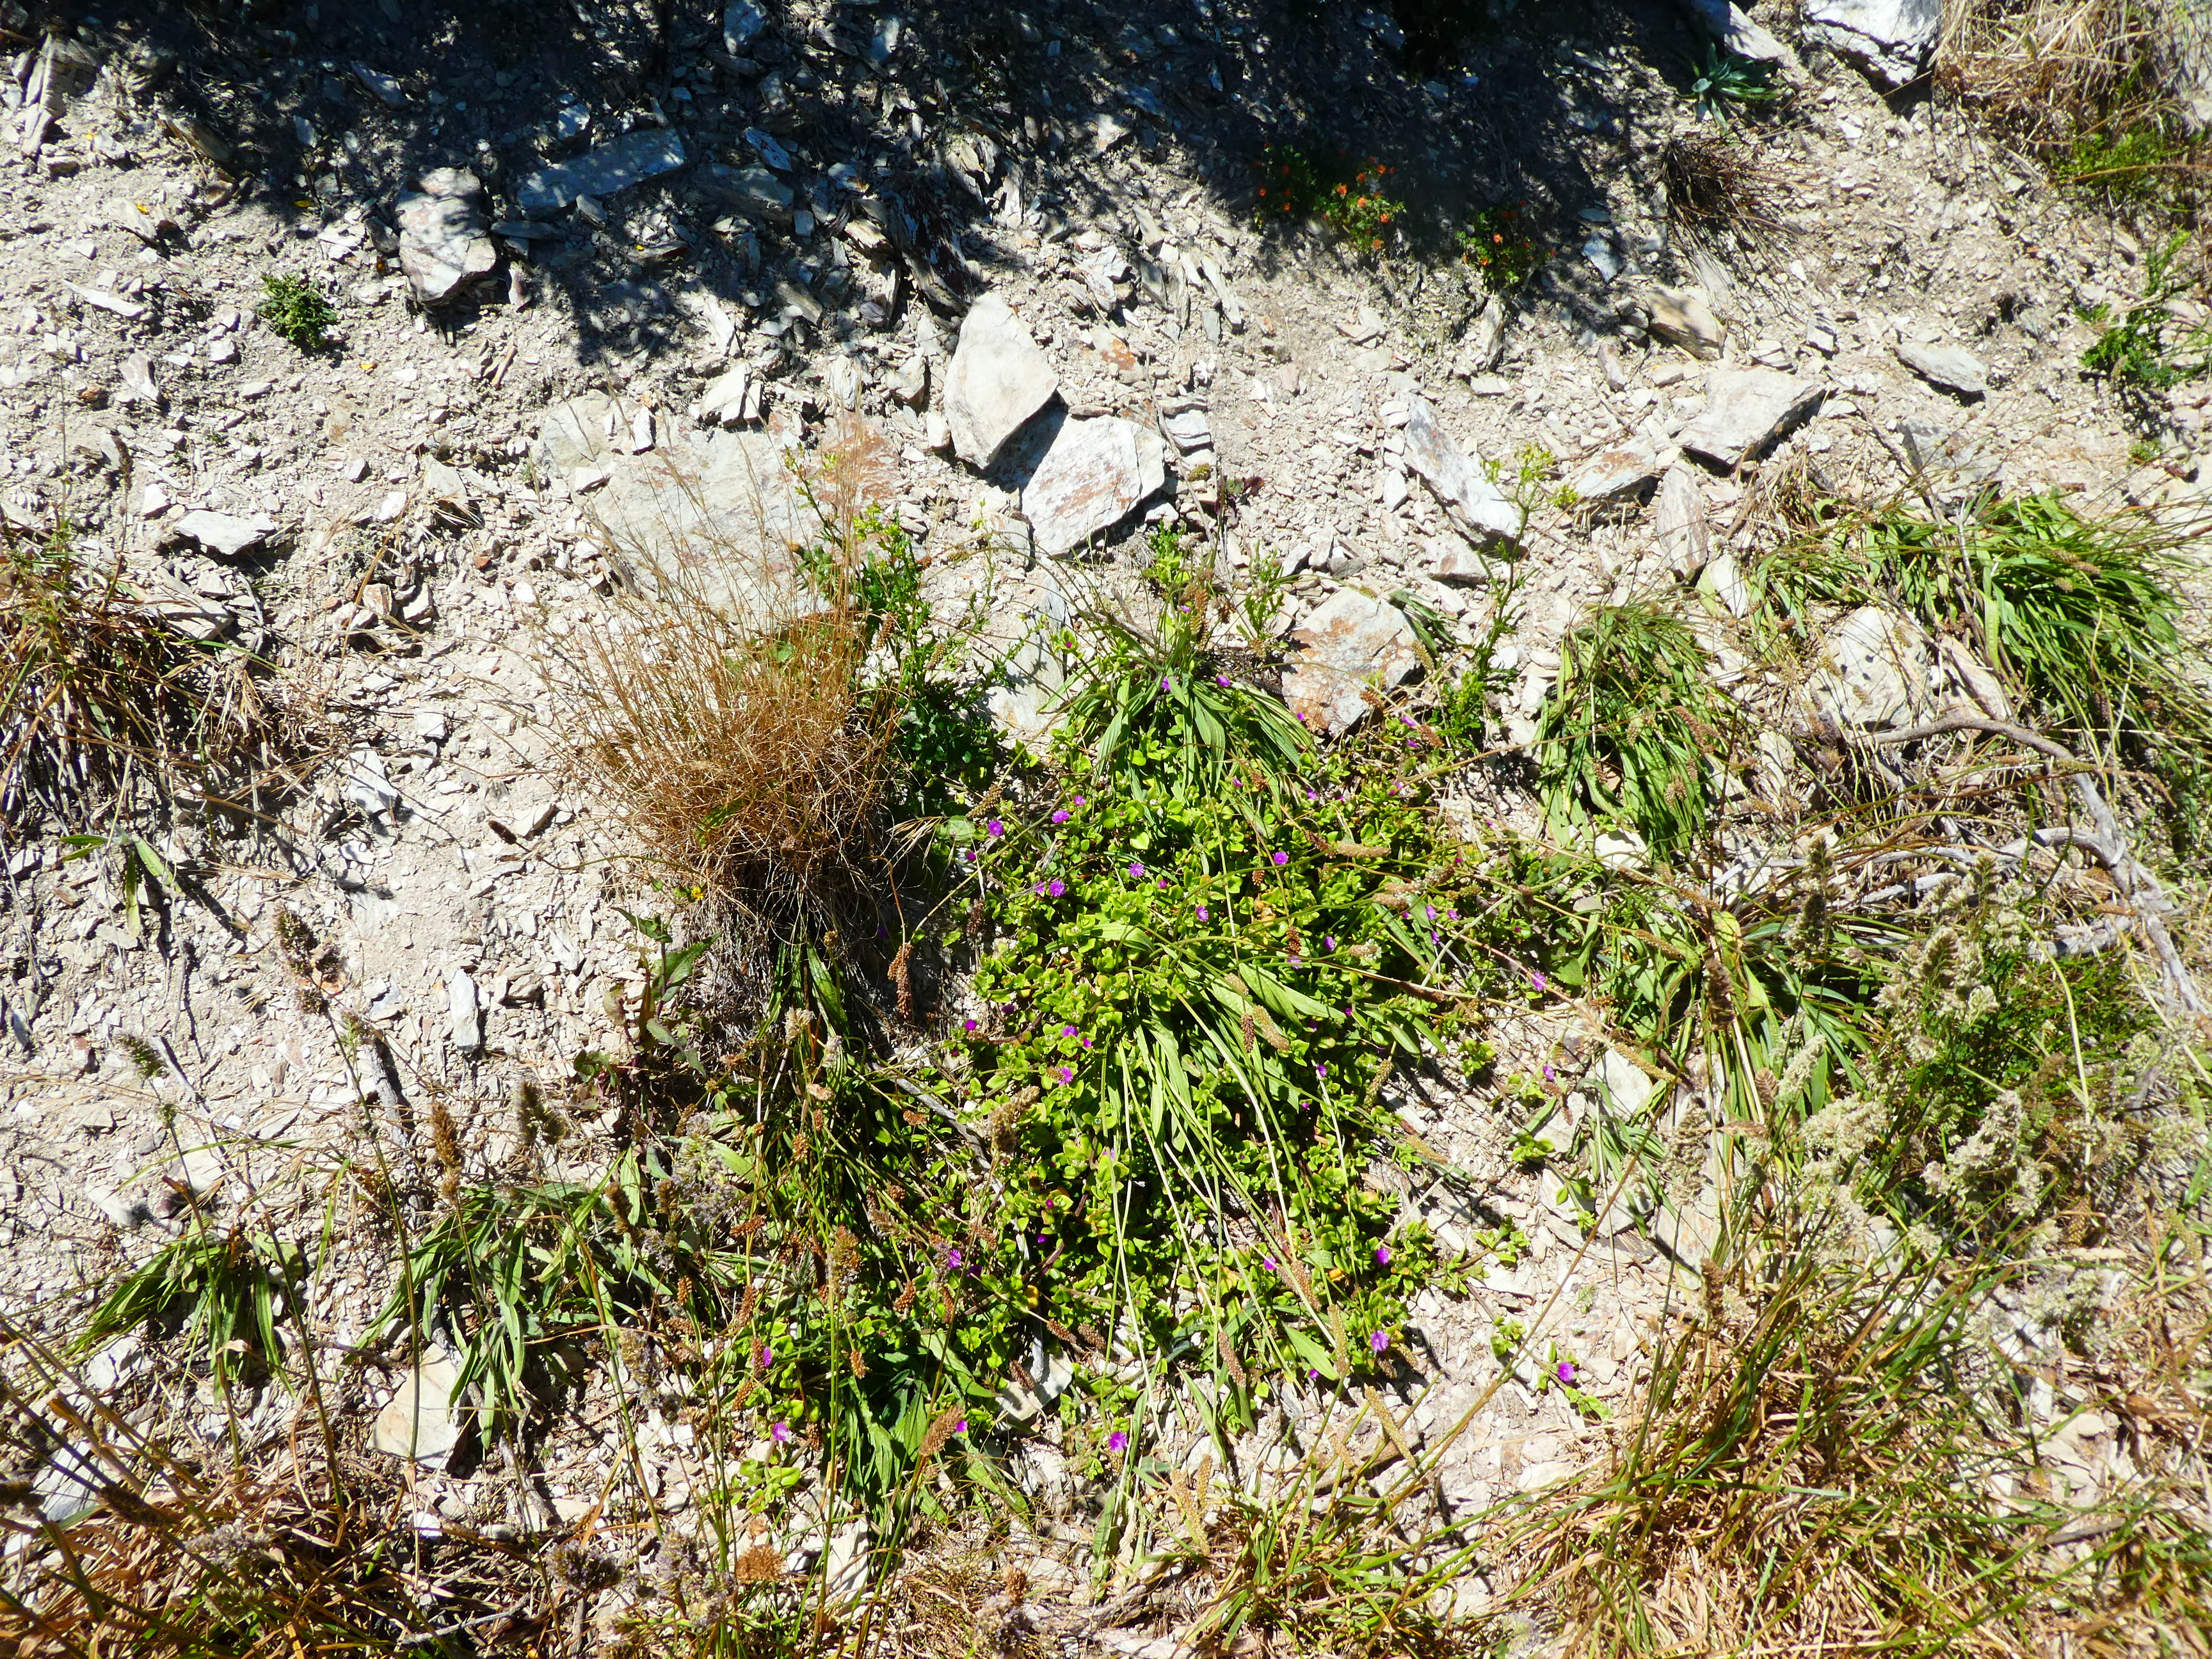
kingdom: Plantae
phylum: Tracheophyta
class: Magnoliopsida
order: Caryophyllales
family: Aizoaceae
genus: Mesembryanthemum
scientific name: Mesembryanthemum cordifolium
